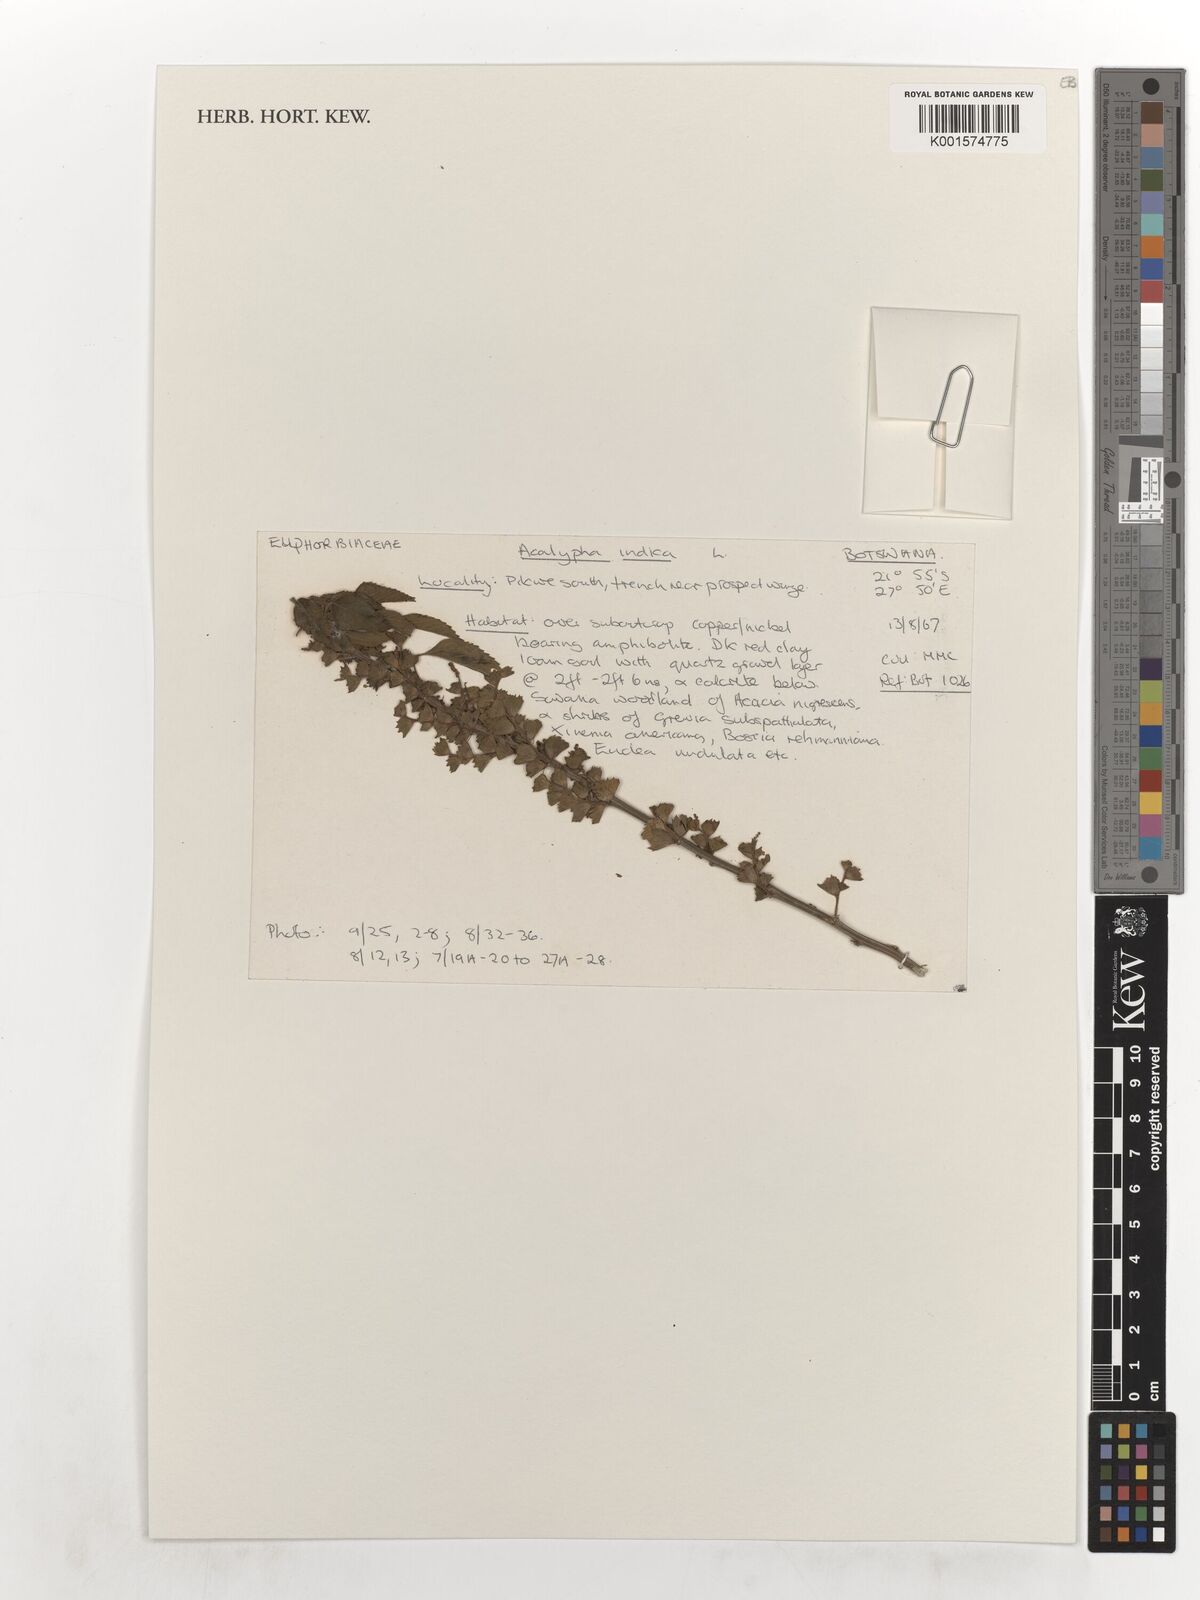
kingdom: Plantae
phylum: Tracheophyta
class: Magnoliopsida
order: Malpighiales
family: Euphorbiaceae
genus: Acalypha
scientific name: Acalypha indica
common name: Indian acalypha
